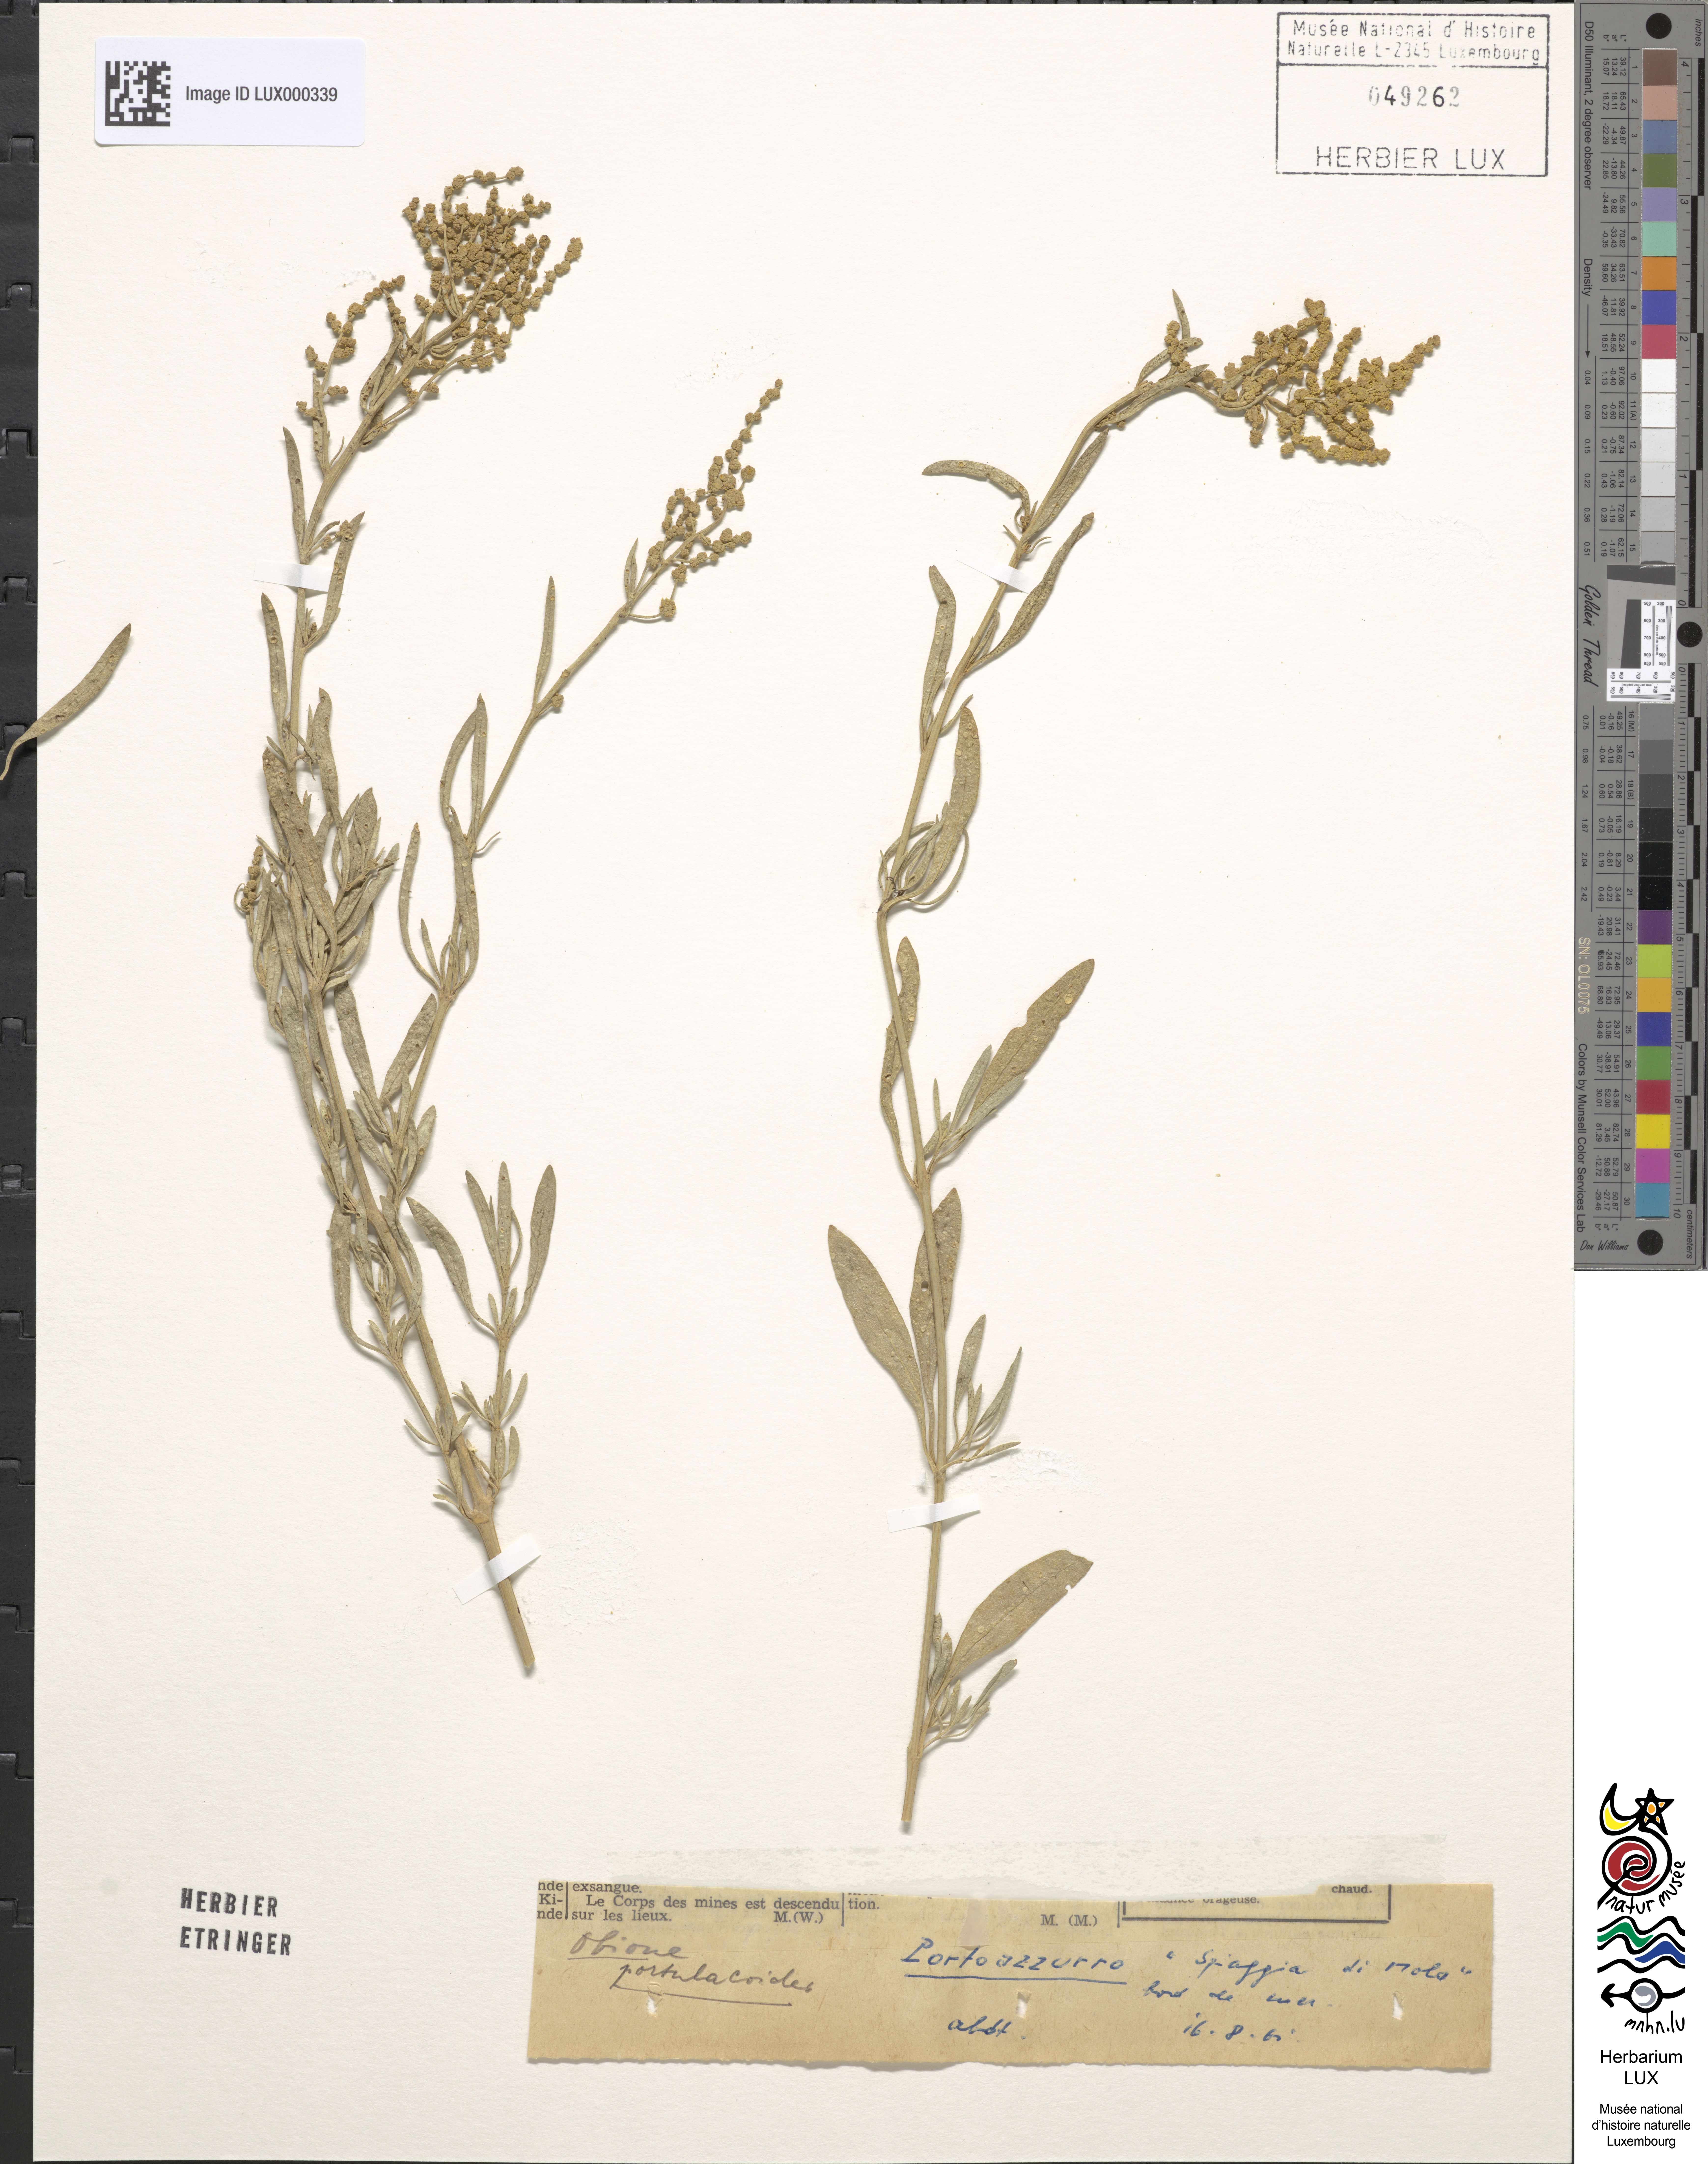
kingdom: Plantae
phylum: Tracheophyta
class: Magnoliopsida
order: Caryophyllales
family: Amaranthaceae
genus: Halimione
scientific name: Halimione portulacoides
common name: Sea-purslane
